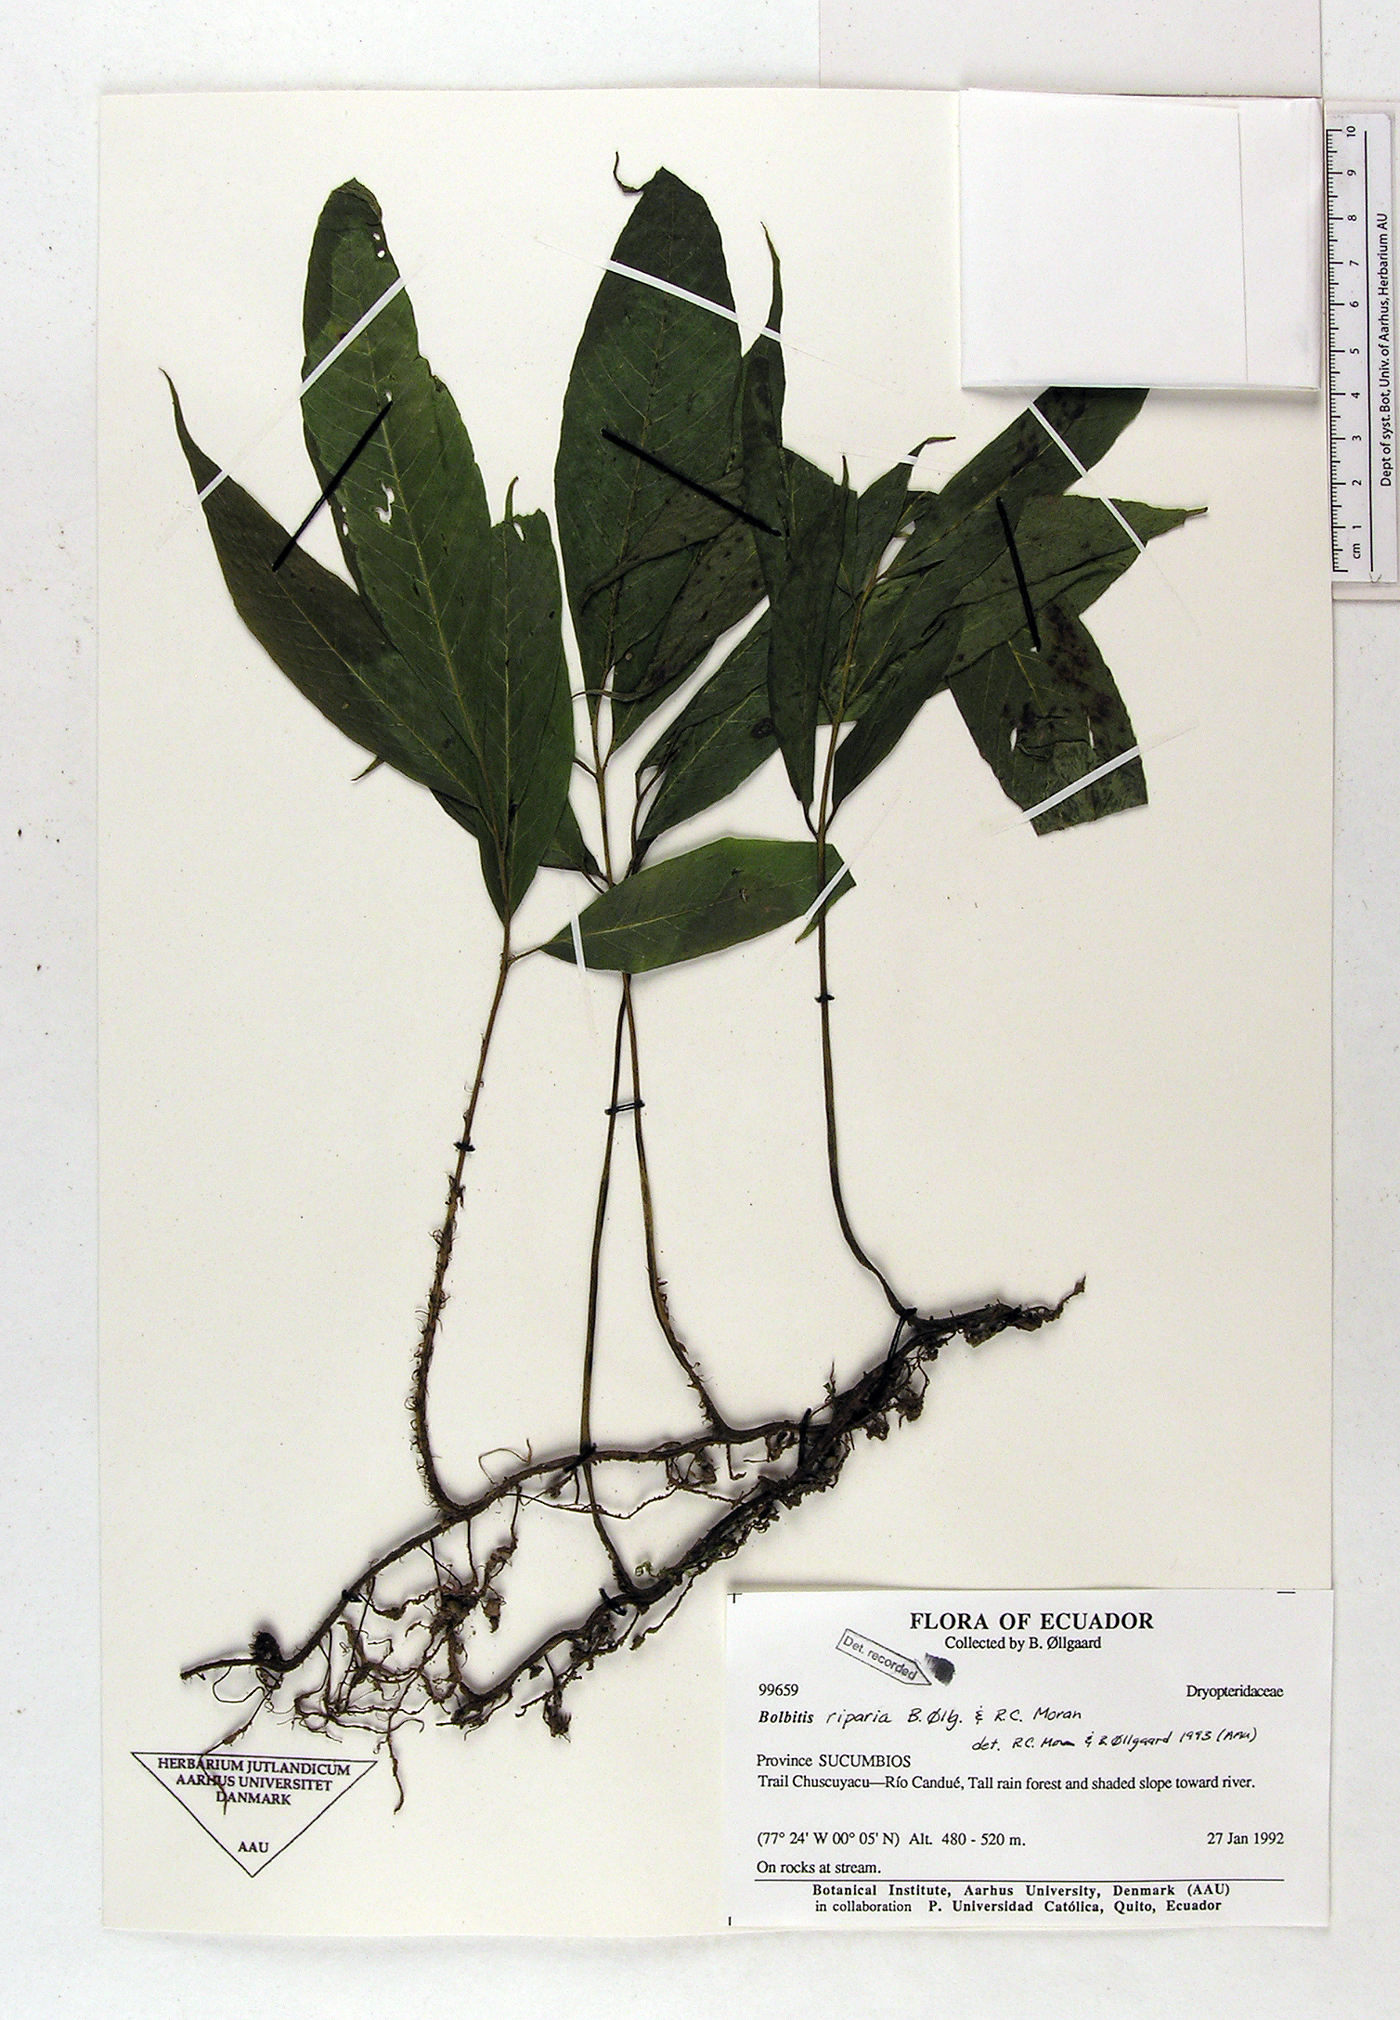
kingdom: Plantae
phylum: Tracheophyta
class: Polypodiopsida
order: Polypodiales
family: Dryopteridaceae
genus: Mickelia
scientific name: Mickelia nicotianifolia
